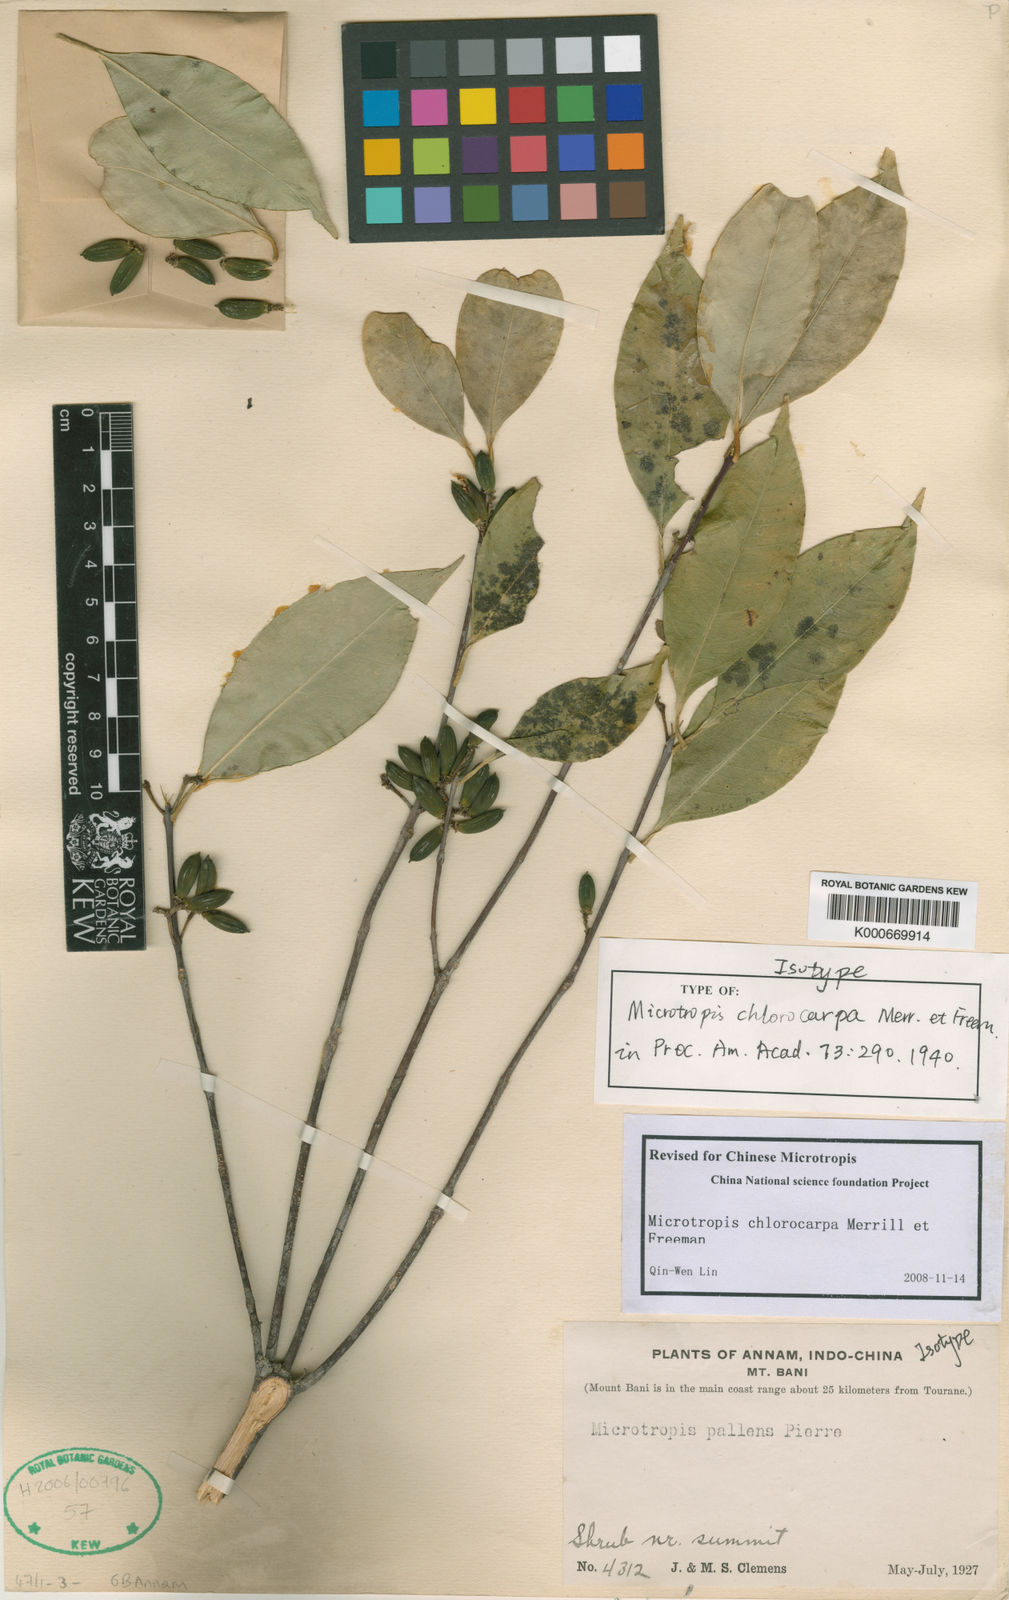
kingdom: Plantae
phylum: Tracheophyta
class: Magnoliopsida
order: Celastrales
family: Celastraceae
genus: Microtropis
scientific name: Microtropis chlorocarpa
